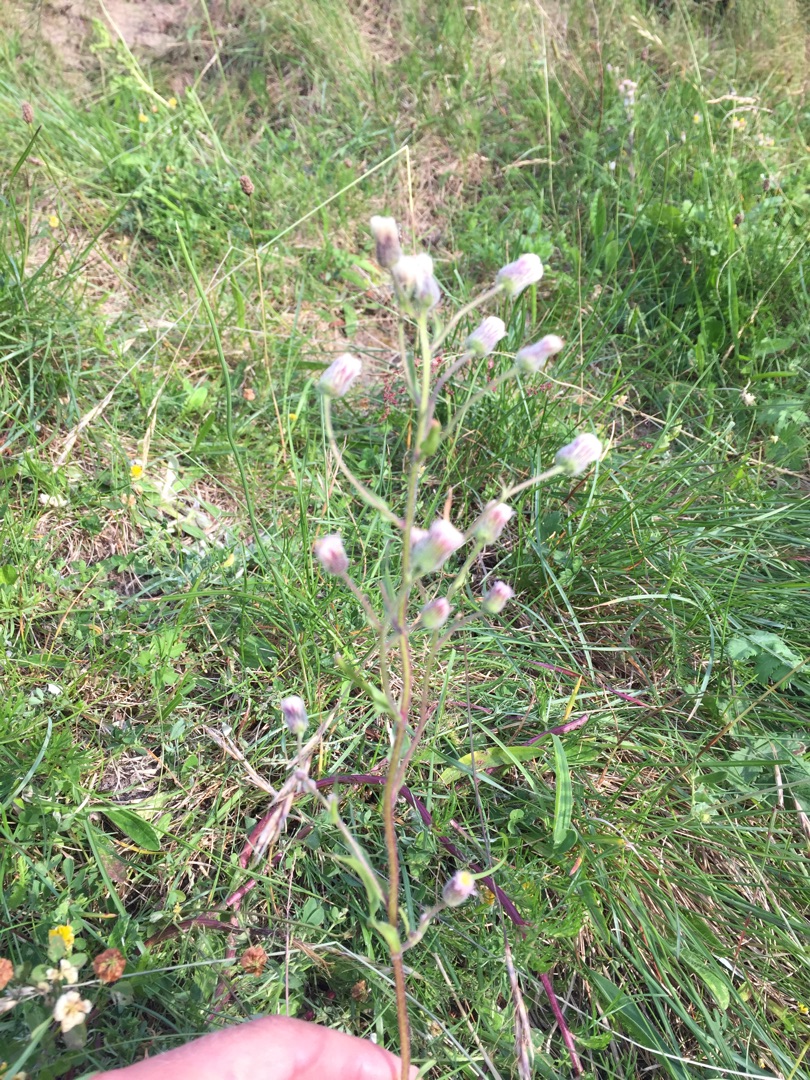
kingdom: Plantae
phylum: Tracheophyta
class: Magnoliopsida
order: Asterales
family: Asteraceae
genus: Erigeron
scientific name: Erigeron acris
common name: Bitter bakkestjerne
